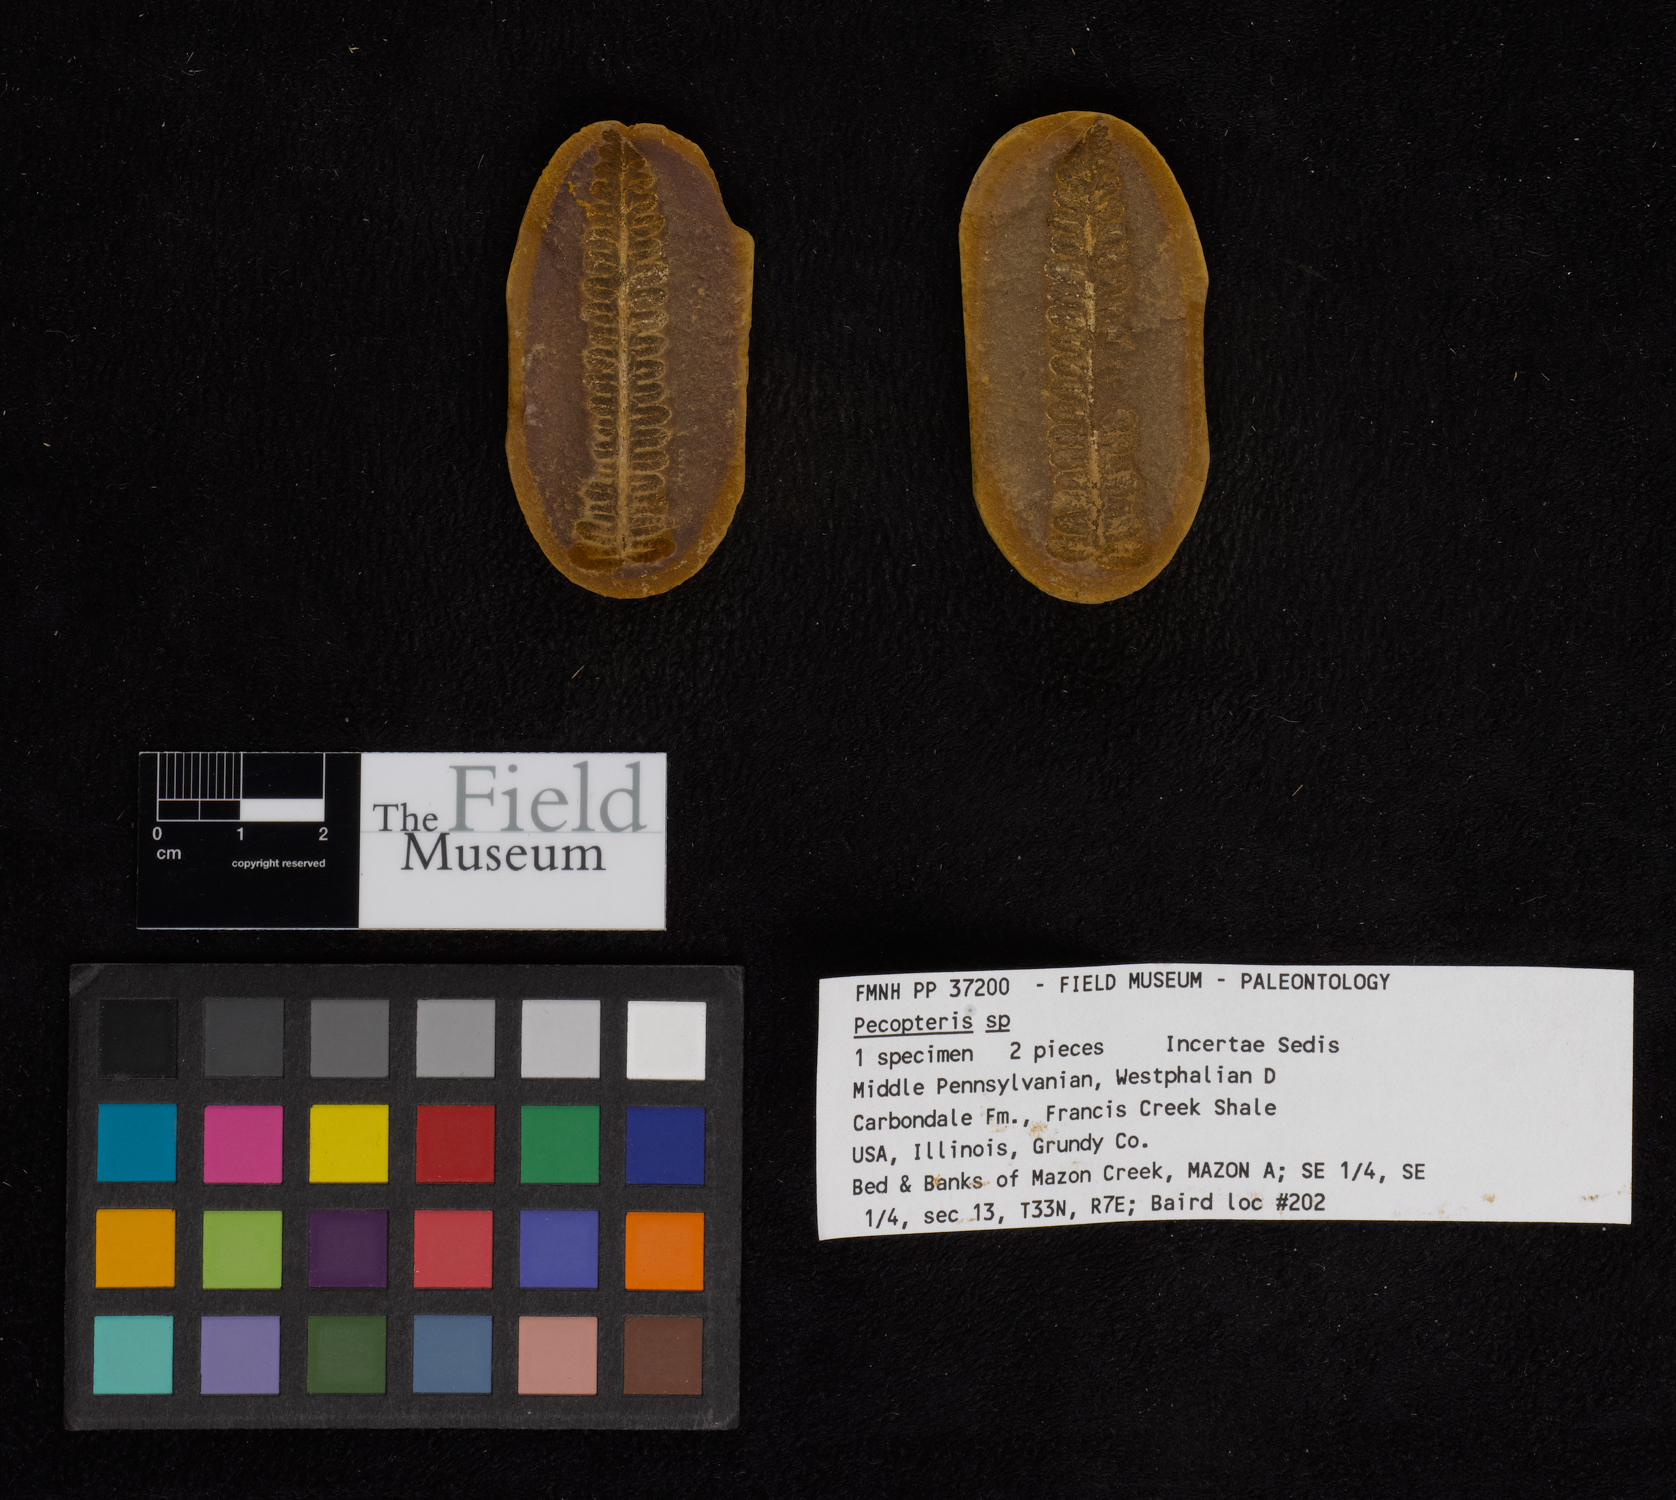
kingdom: Plantae
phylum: Tracheophyta
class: Polypodiopsida
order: Marattiales
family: Asterothecaceae
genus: Pecopteris
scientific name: Pecopteris
